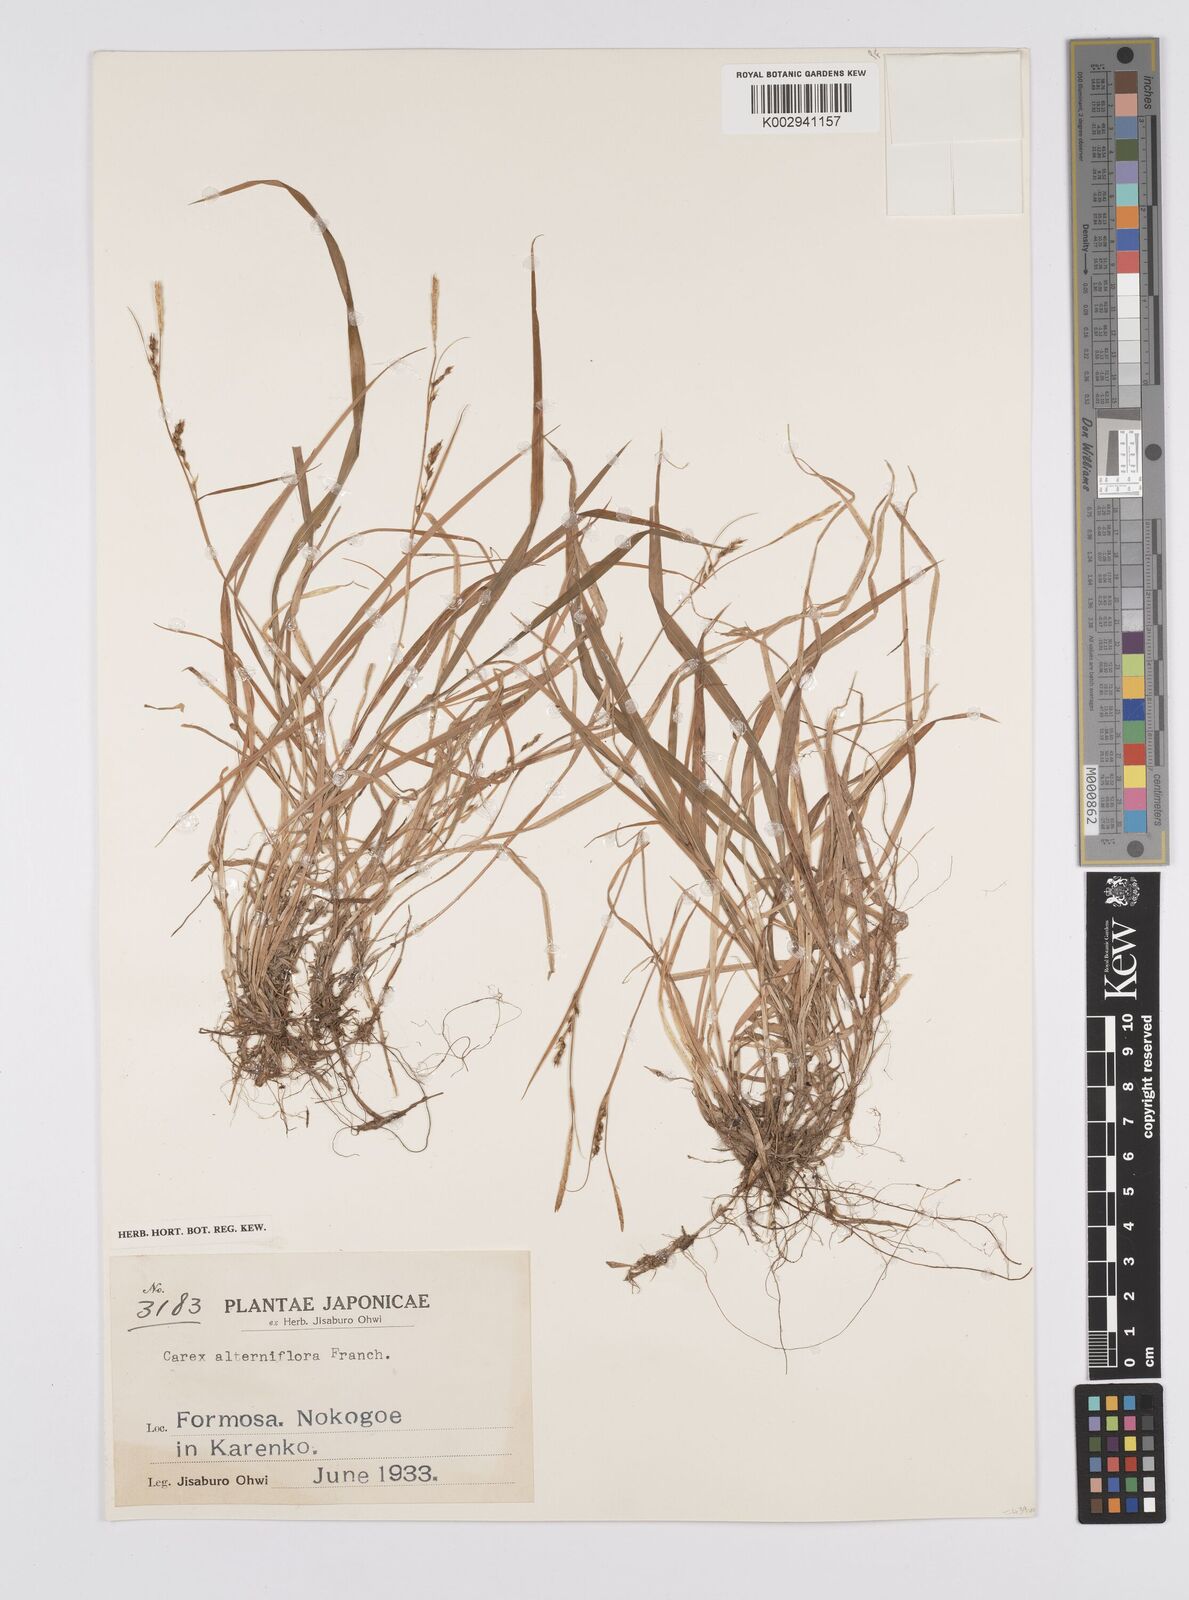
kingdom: Plantae
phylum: Tracheophyta
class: Liliopsida
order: Poales
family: Cyperaceae
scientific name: Cyperaceae
